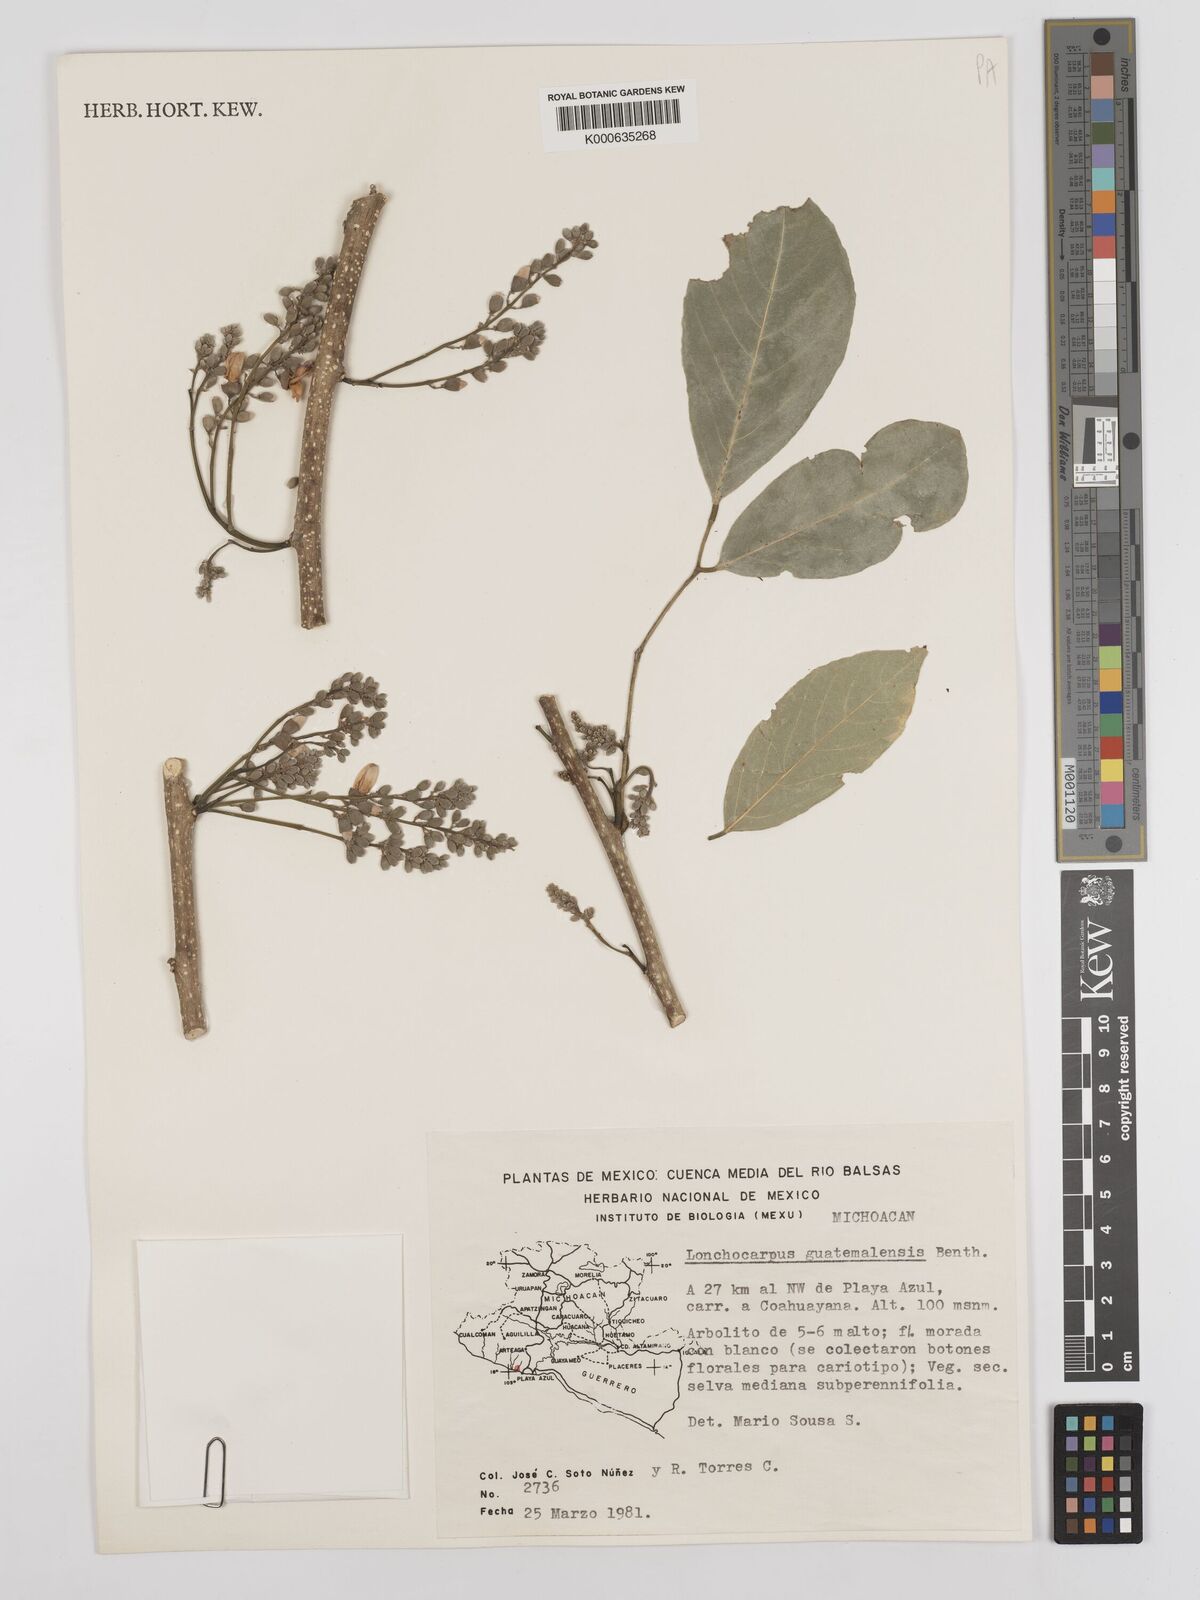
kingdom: Plantae
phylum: Tracheophyta
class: Magnoliopsida
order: Fabales
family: Fabaceae
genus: Lonchocarpus
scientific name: Lonchocarpus guatemalensis
